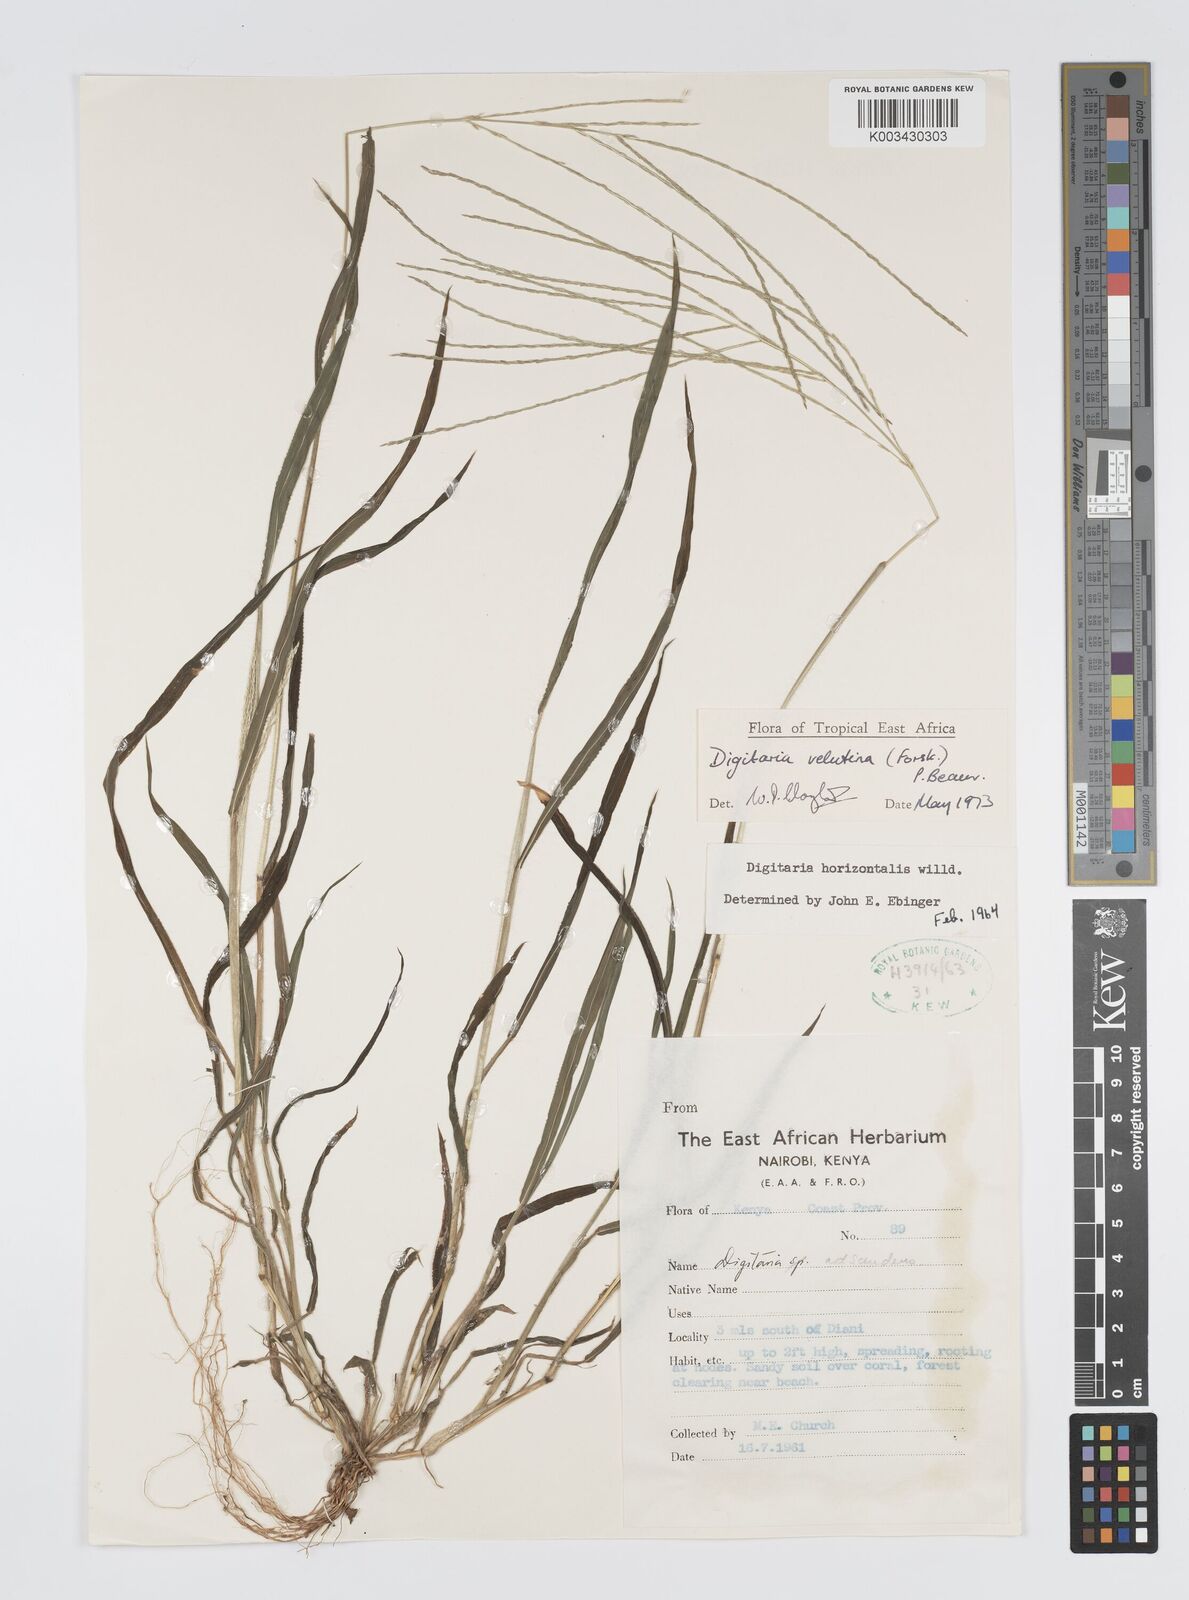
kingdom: Plantae
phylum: Tracheophyta
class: Liliopsida
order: Poales
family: Poaceae
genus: Digitaria
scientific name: Digitaria velutina
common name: Long-plume finger grass
